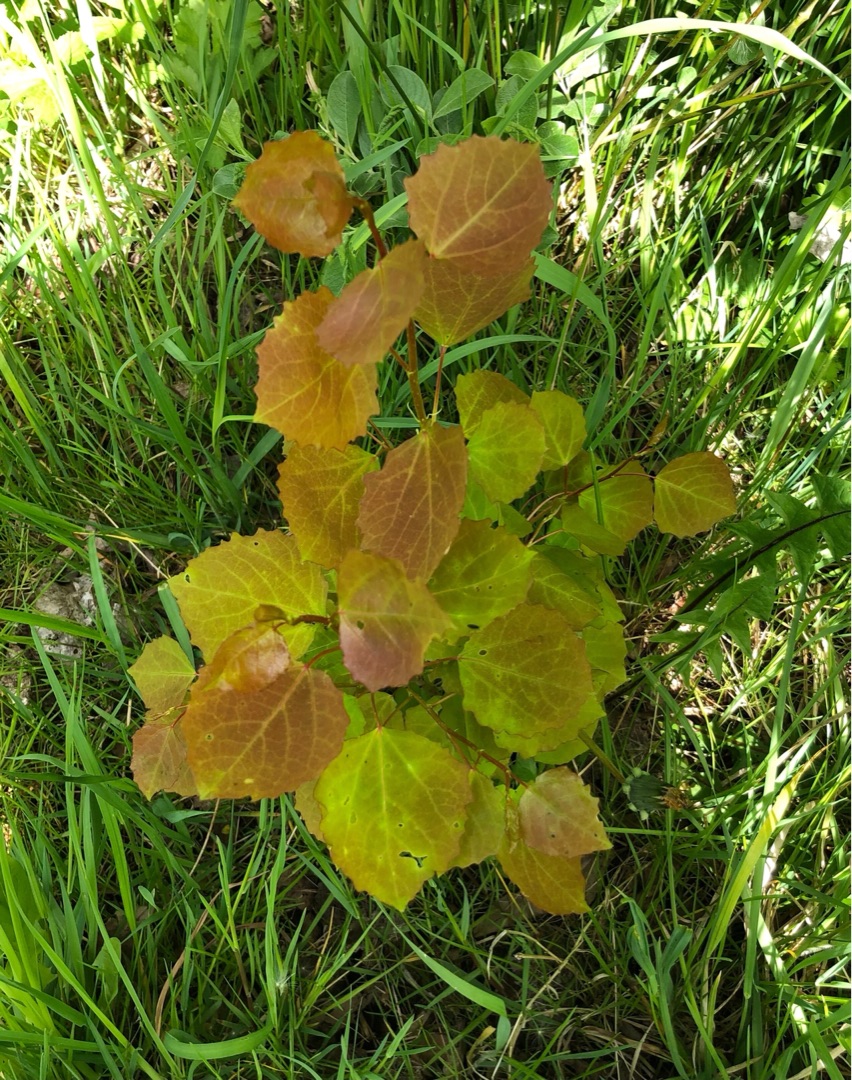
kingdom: Plantae
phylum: Tracheophyta
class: Magnoliopsida
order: Malpighiales
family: Salicaceae
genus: Populus
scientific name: Populus tremula
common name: Bævreasp
